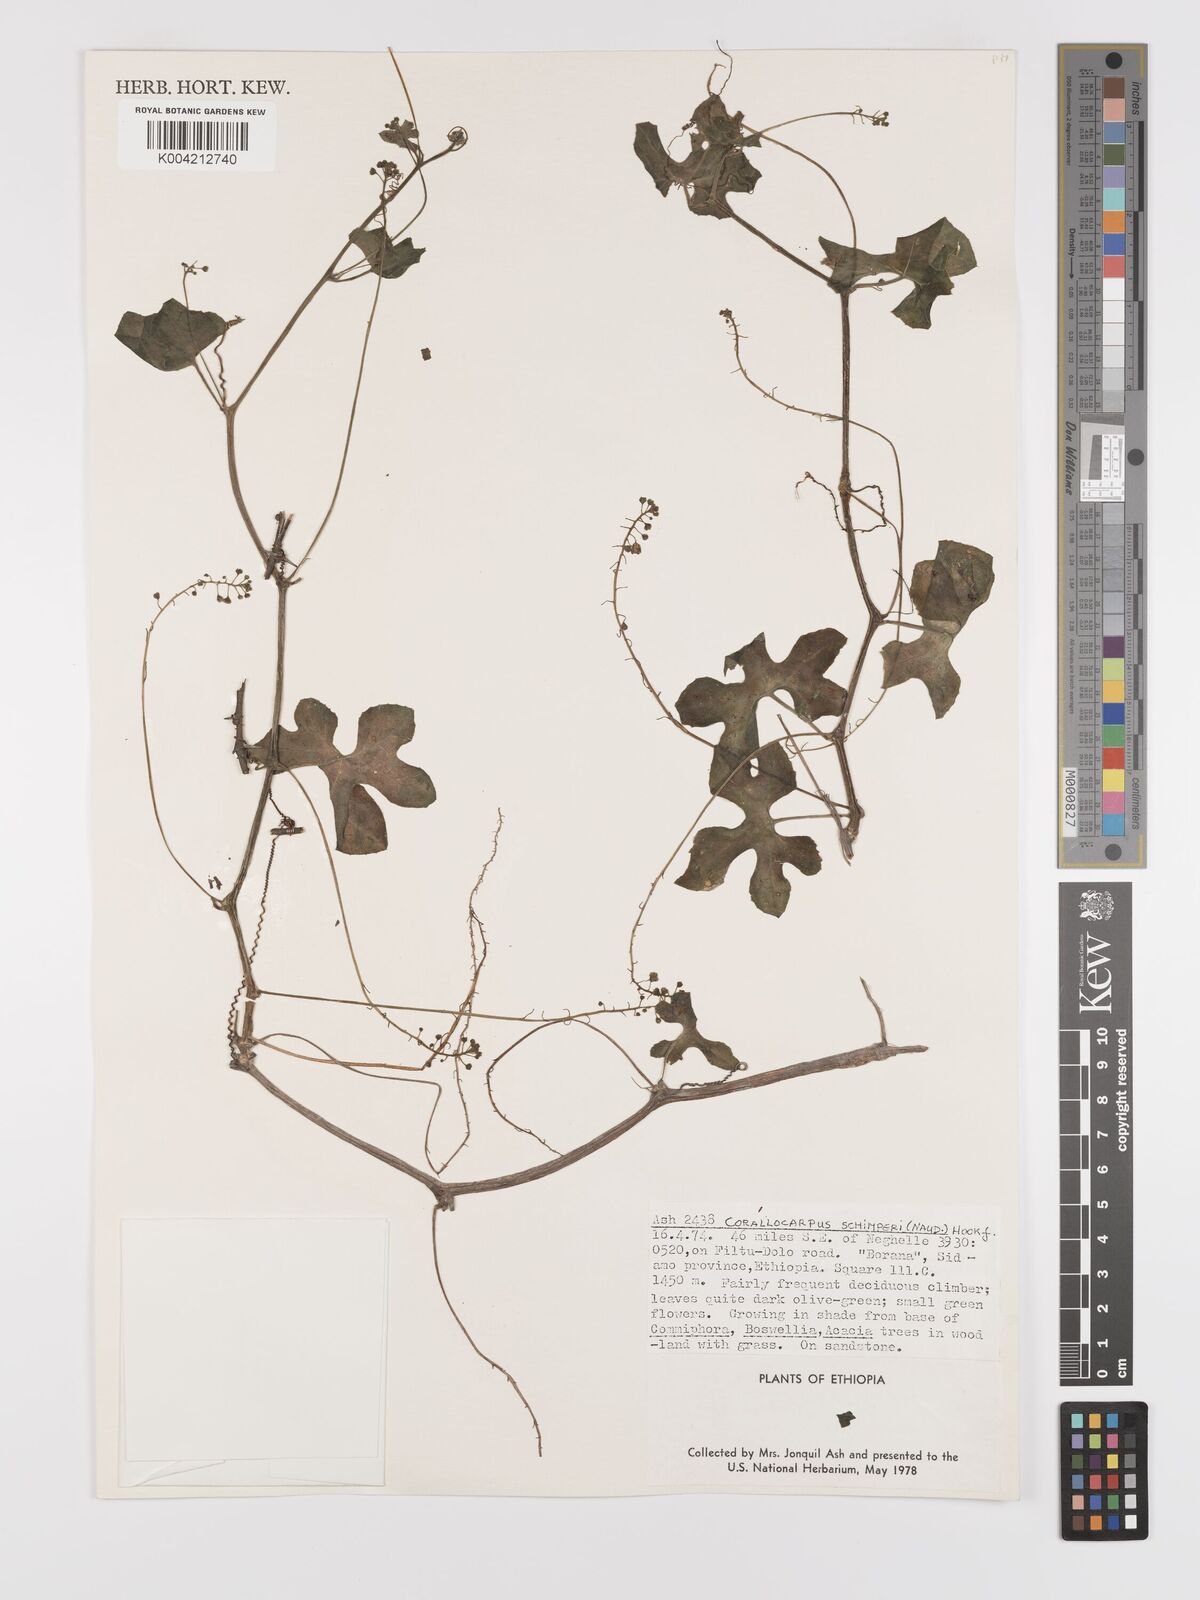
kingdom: Plantae
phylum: Tracheophyta
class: Magnoliopsida
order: Cucurbitales
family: Cucurbitaceae
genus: Corallocarpus
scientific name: Corallocarpus schimperi
